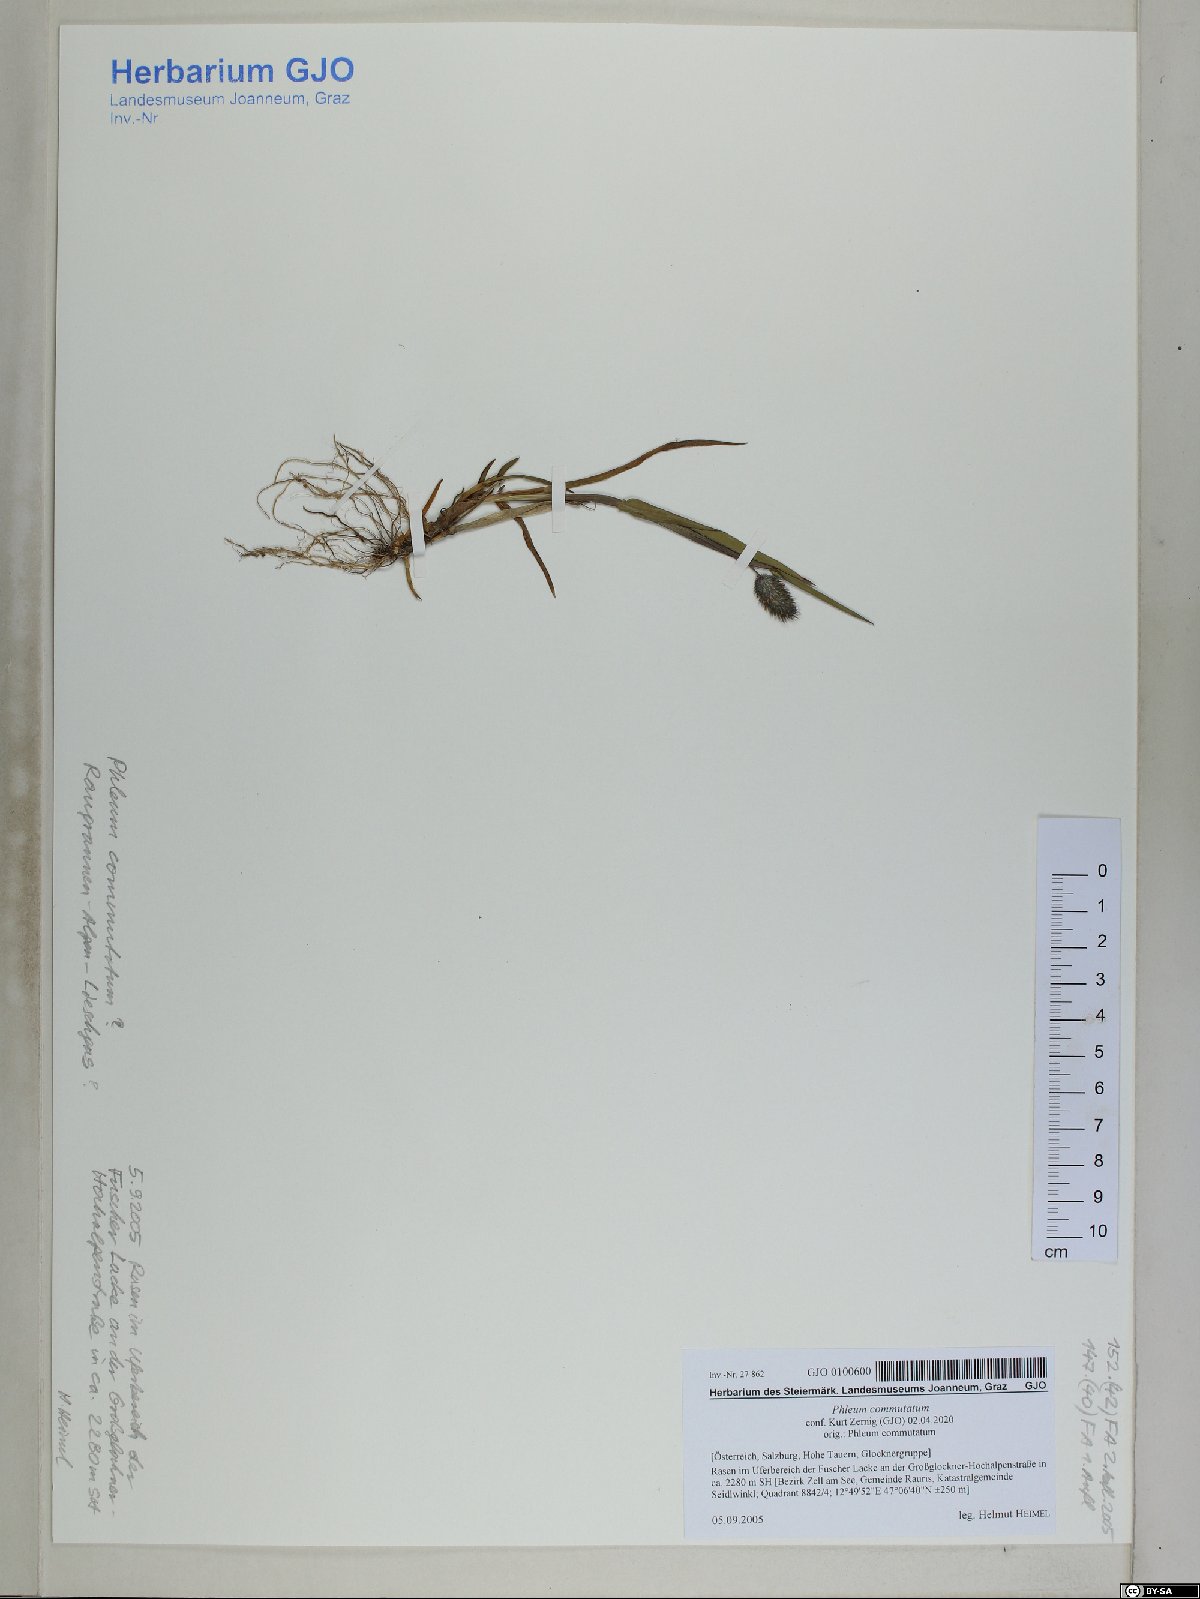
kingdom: Plantae
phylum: Tracheophyta
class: Liliopsida
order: Poales
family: Poaceae
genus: Phleum
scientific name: Phleum alpinum
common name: Alpine cat's-tail
